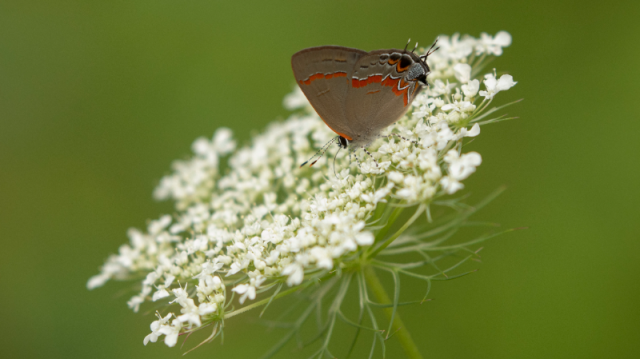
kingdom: Animalia
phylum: Arthropoda
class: Insecta
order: Lepidoptera
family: Lycaenidae
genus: Calycopis
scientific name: Calycopis cecrops
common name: Red-banded Hairstreak
